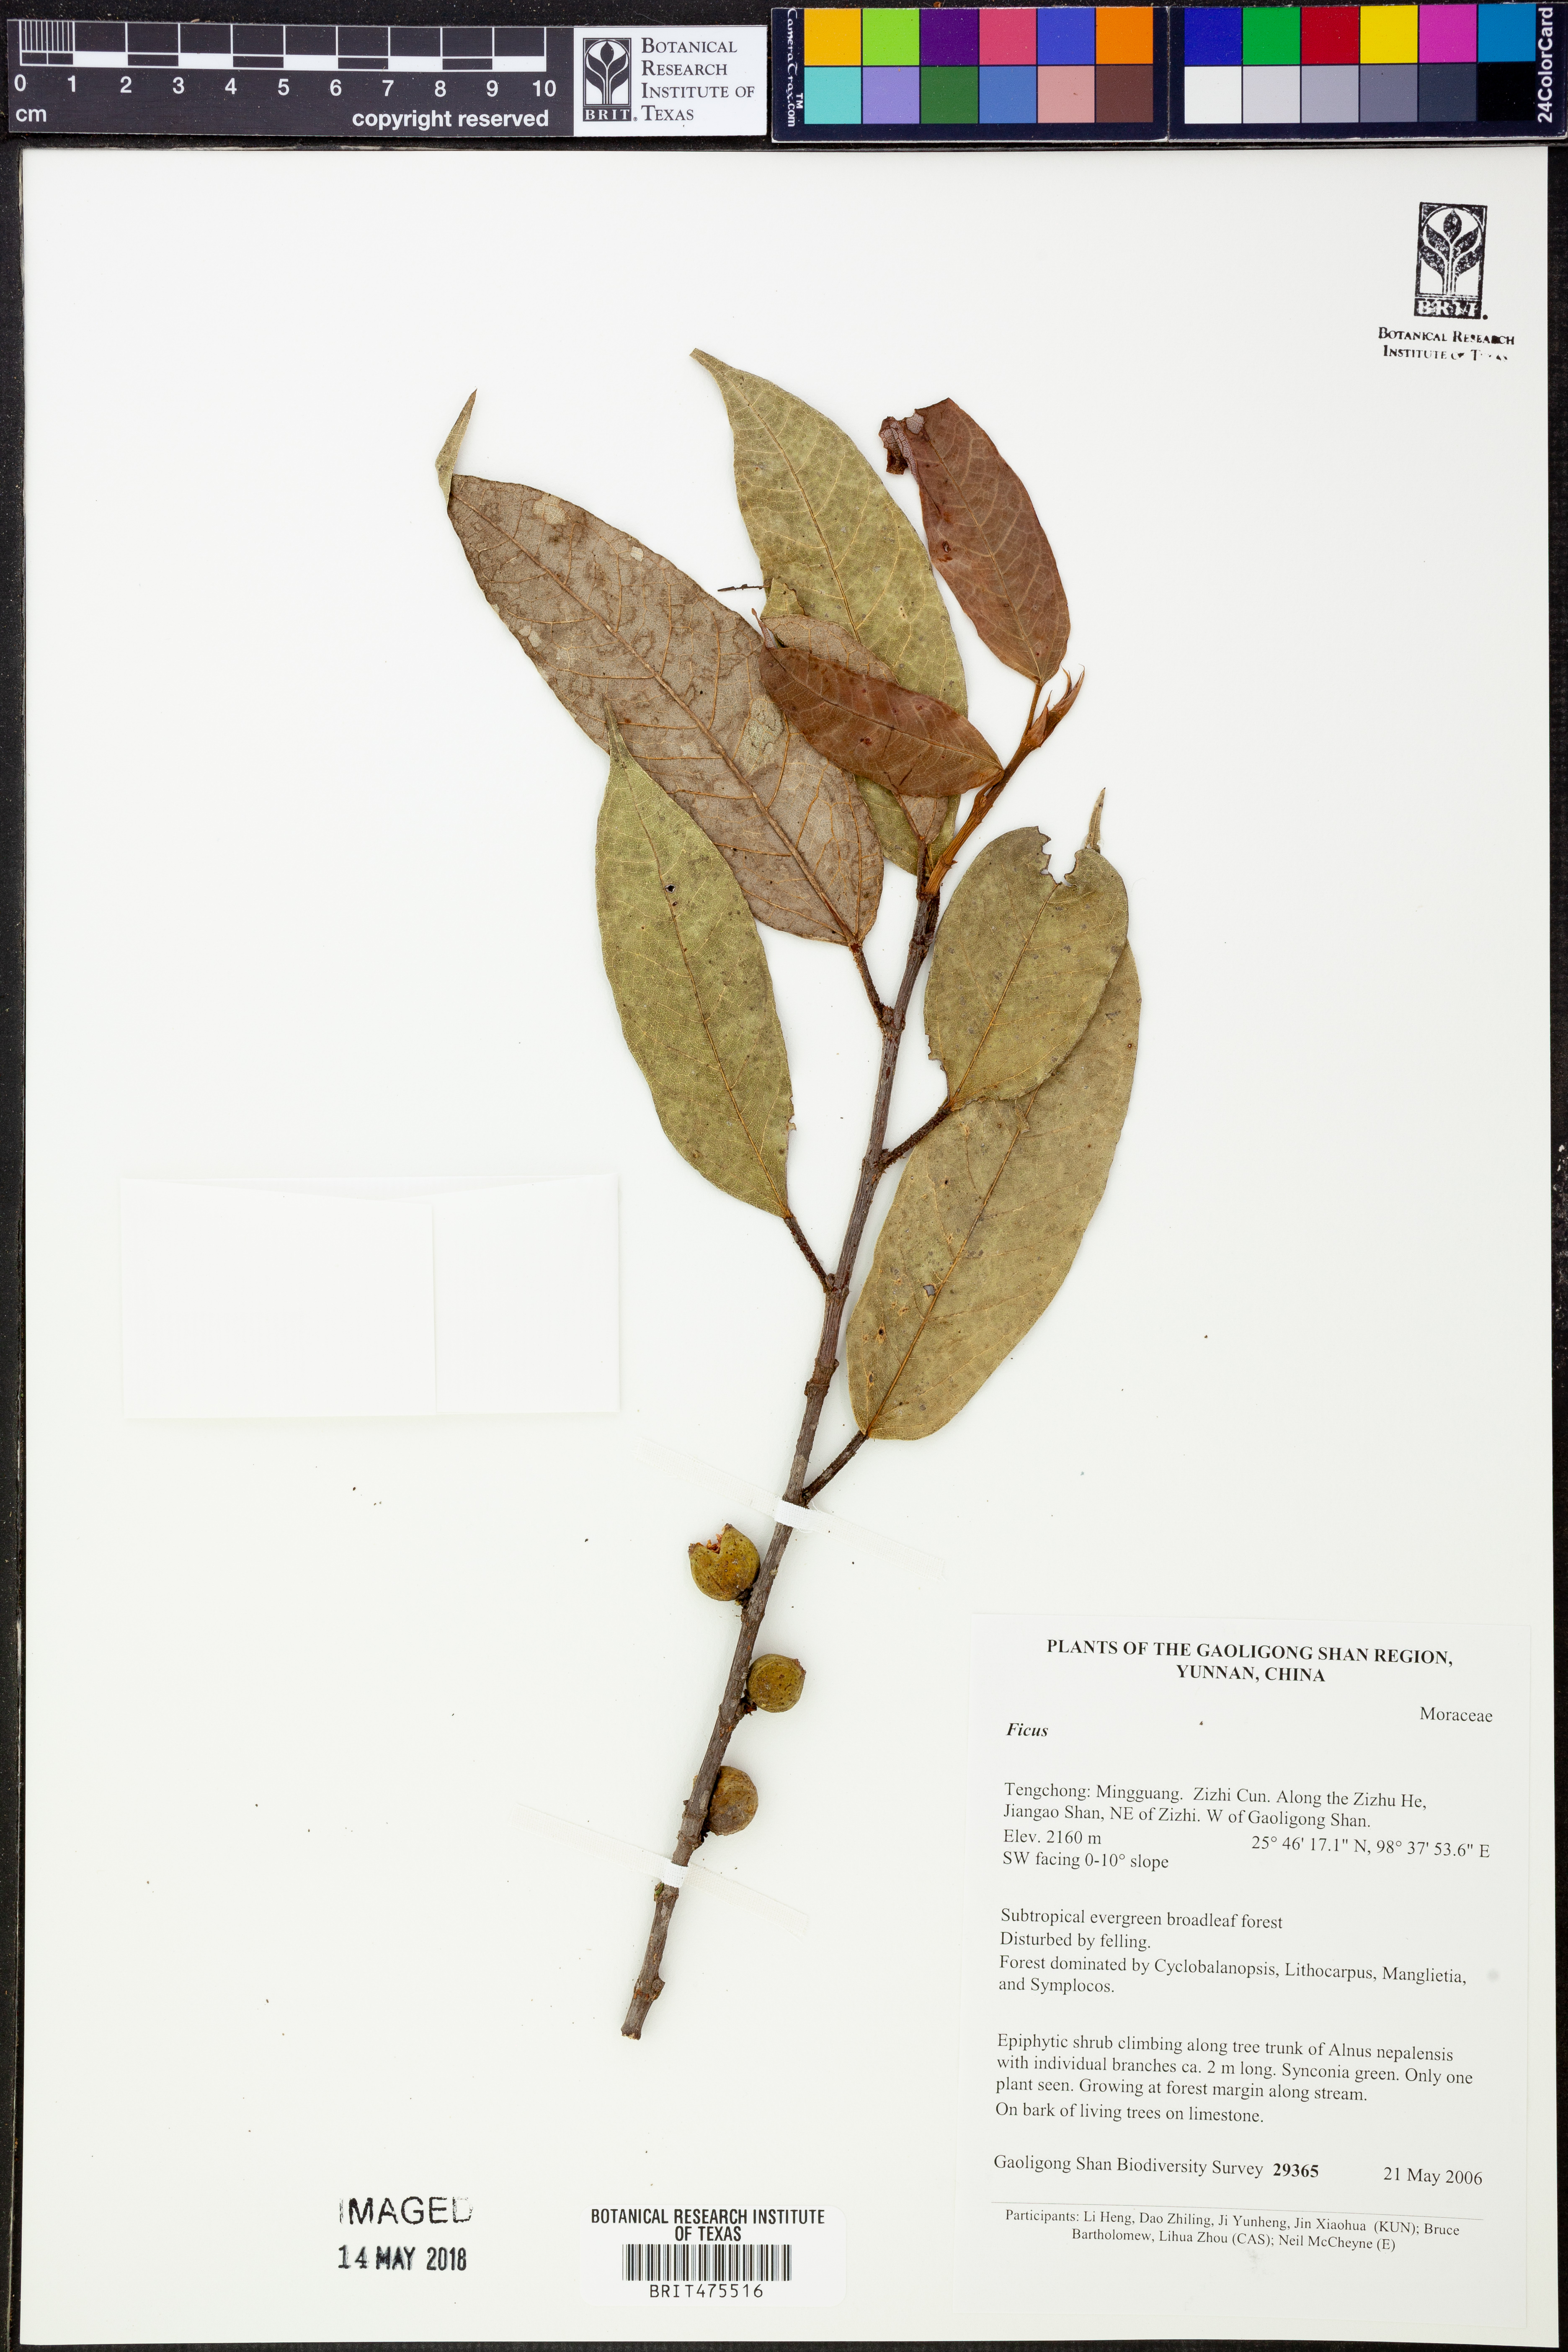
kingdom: Plantae
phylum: Tracheophyta
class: Magnoliopsida
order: Rosales
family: Moraceae
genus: Ficus
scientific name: Ficus
